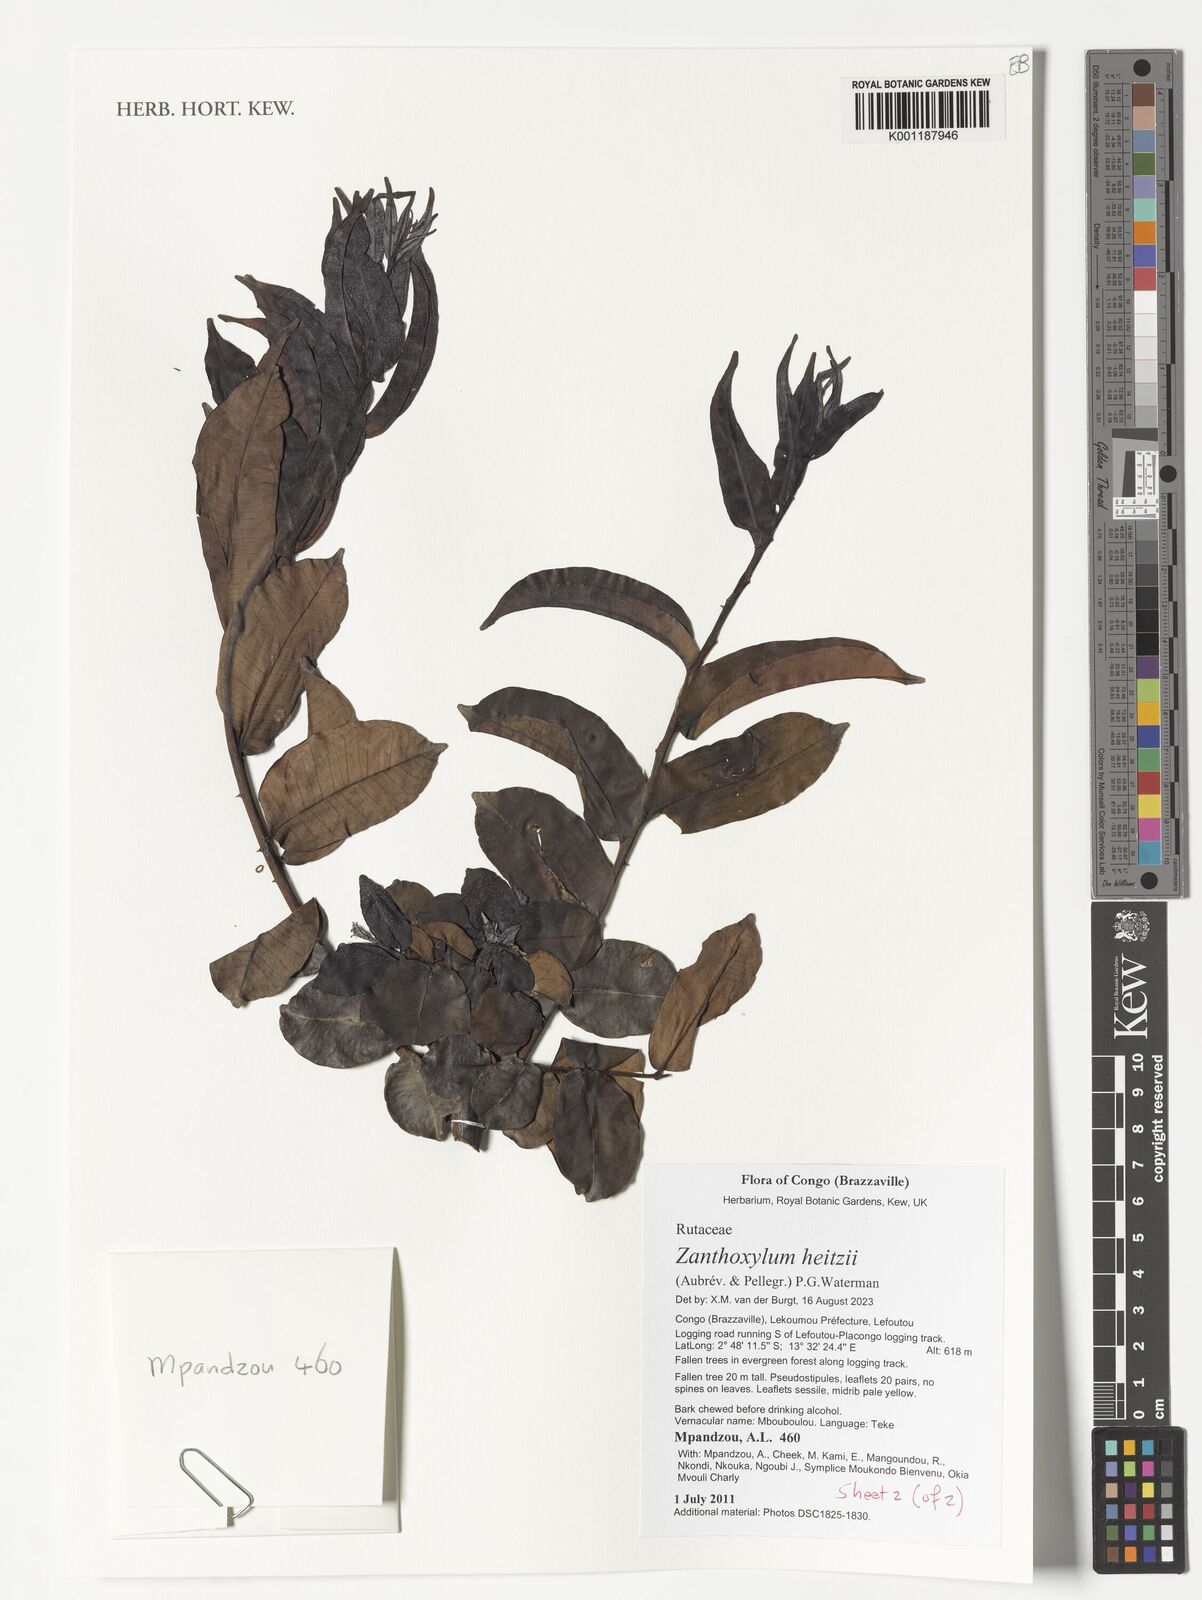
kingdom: Plantae
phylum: Tracheophyta
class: Magnoliopsida
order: Sapindales
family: Rutaceae
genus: Zanthoxylum
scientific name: Zanthoxylum heitzii
